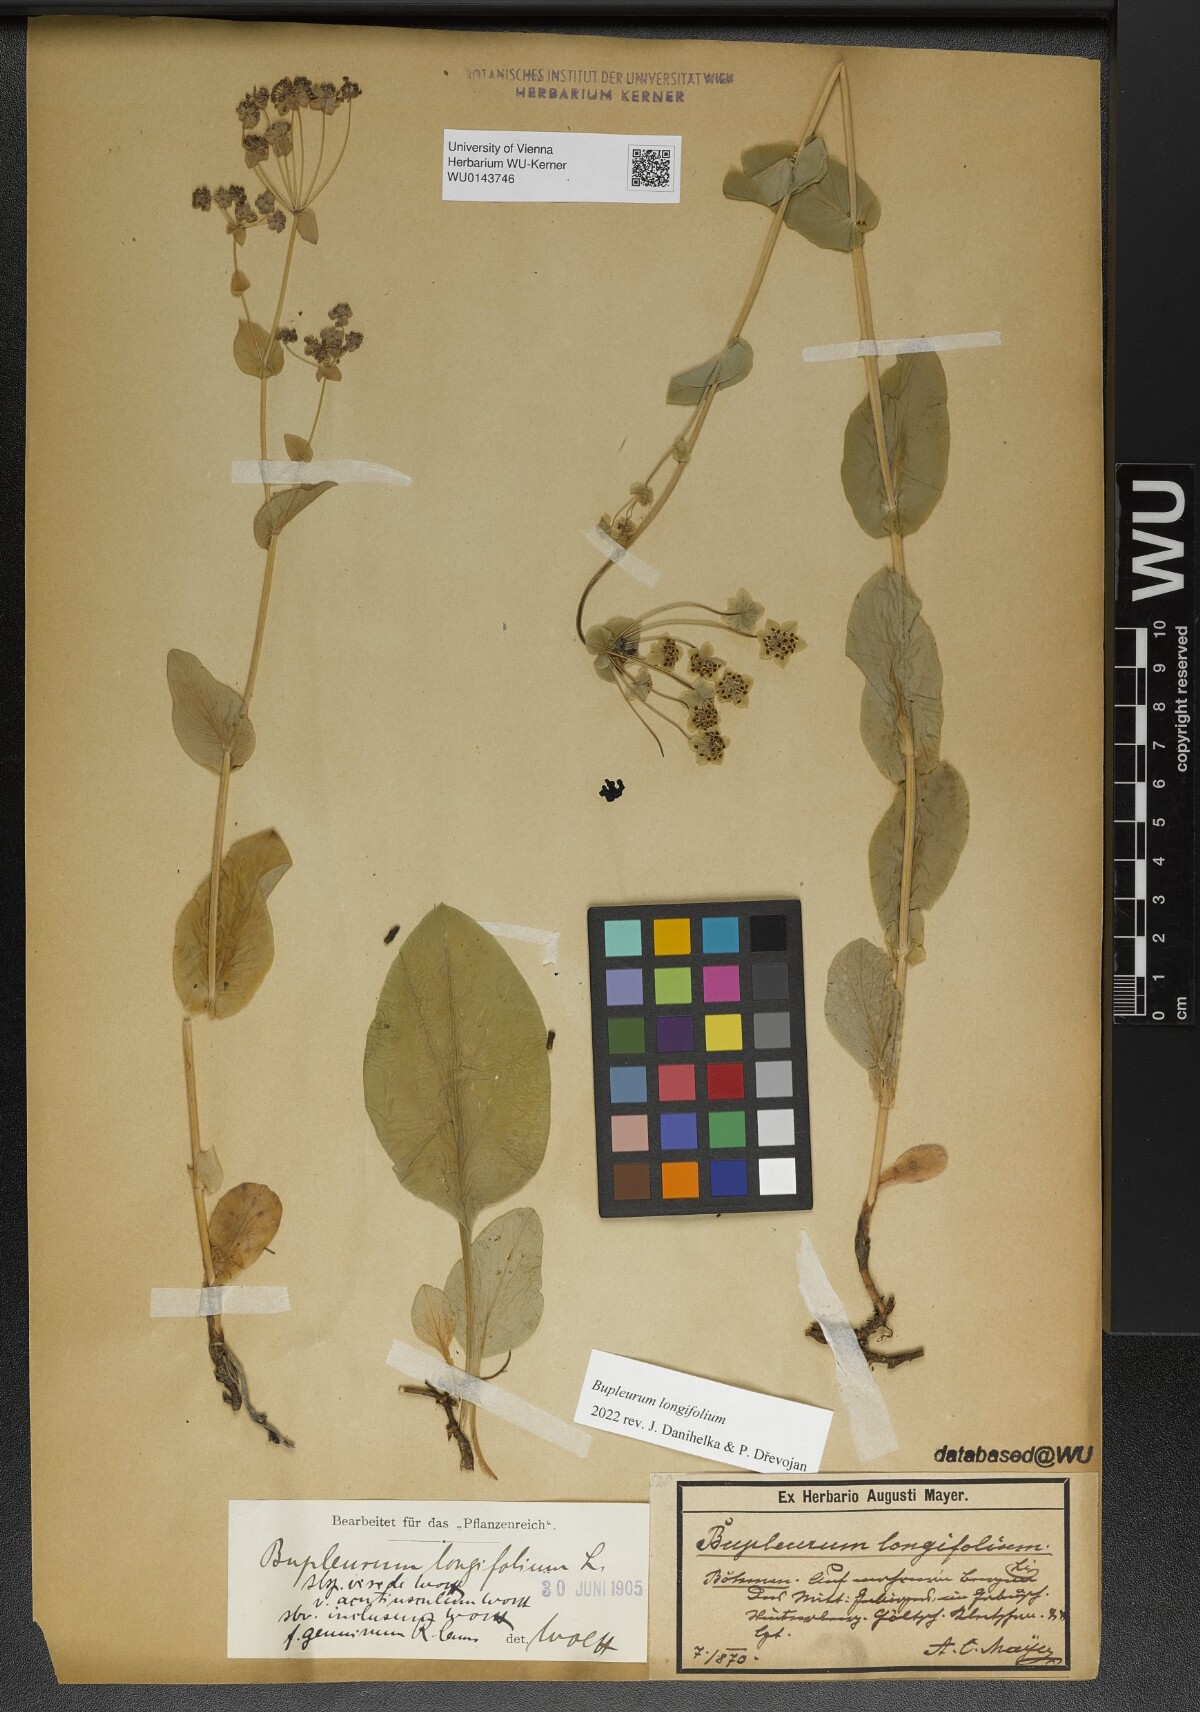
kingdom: Plantae
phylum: Tracheophyta
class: Magnoliopsida
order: Apiales
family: Apiaceae
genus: Bupleurum
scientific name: Bupleurum longifolium
